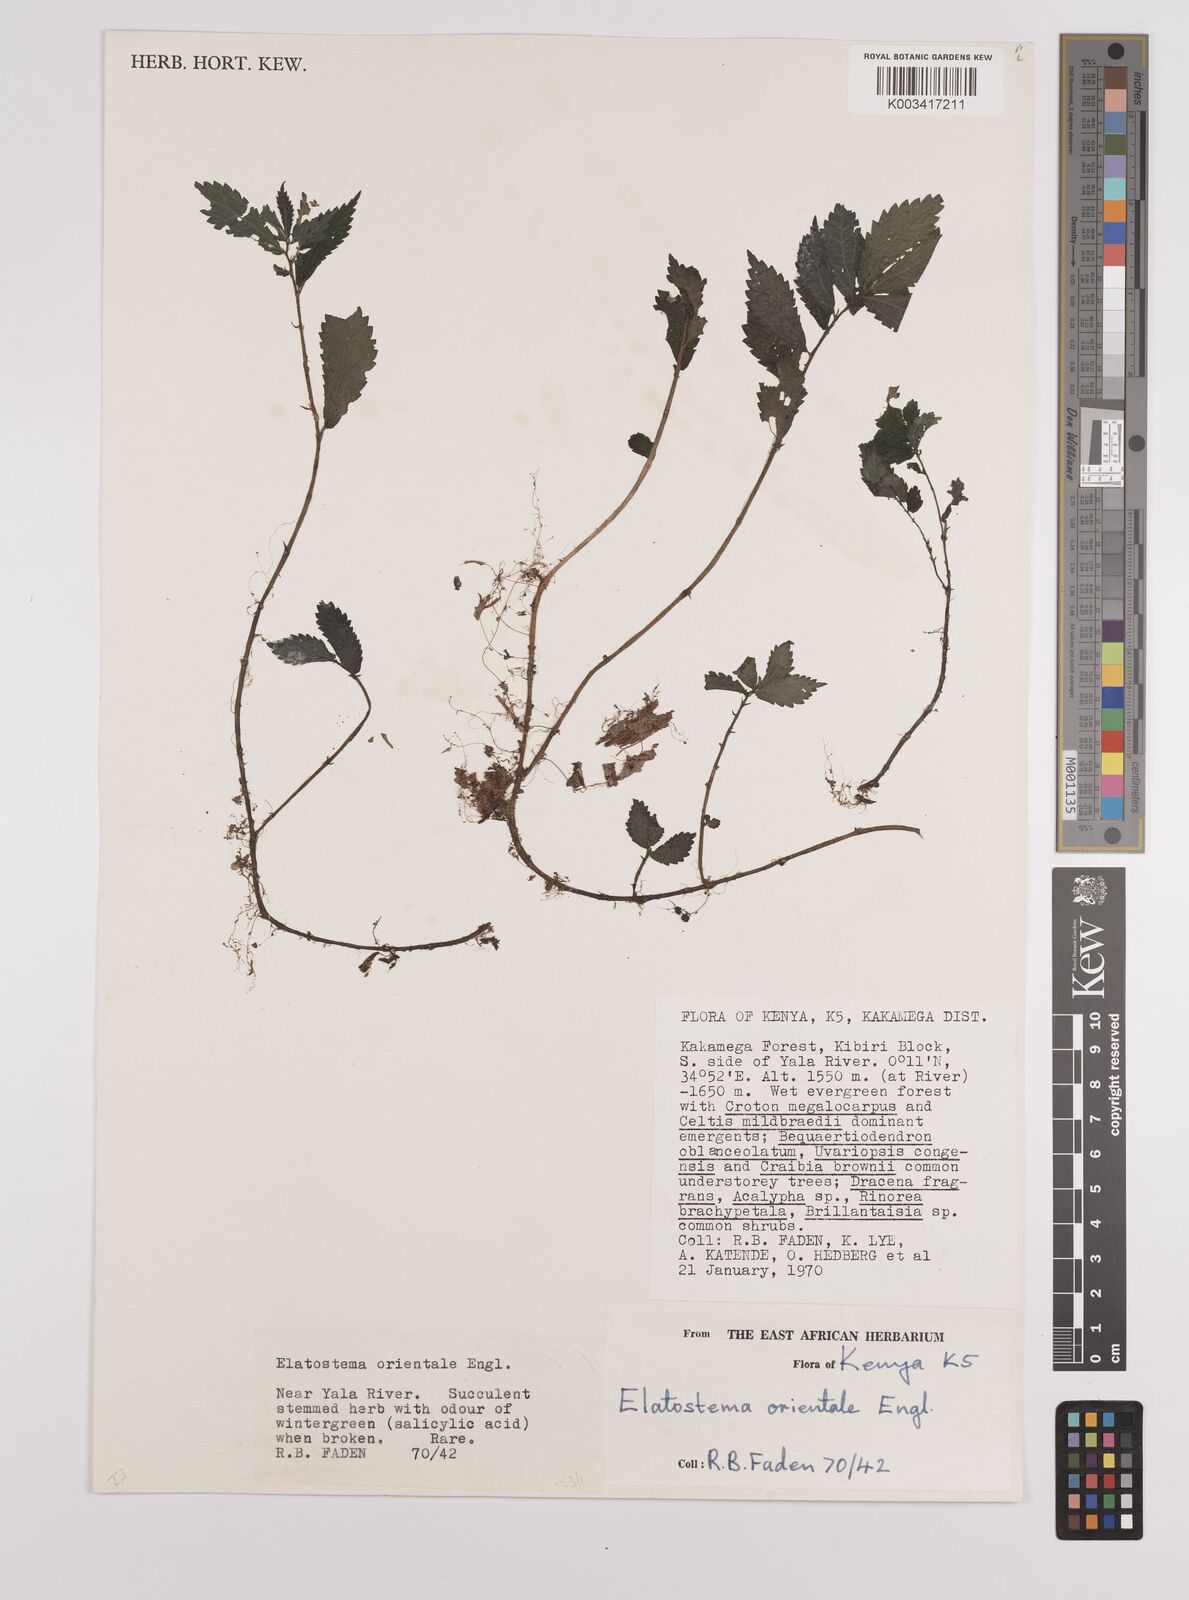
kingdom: Plantae
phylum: Tracheophyta
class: Magnoliopsida
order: Rosales
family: Urticaceae
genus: Elatostema
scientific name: Elatostema monticola
